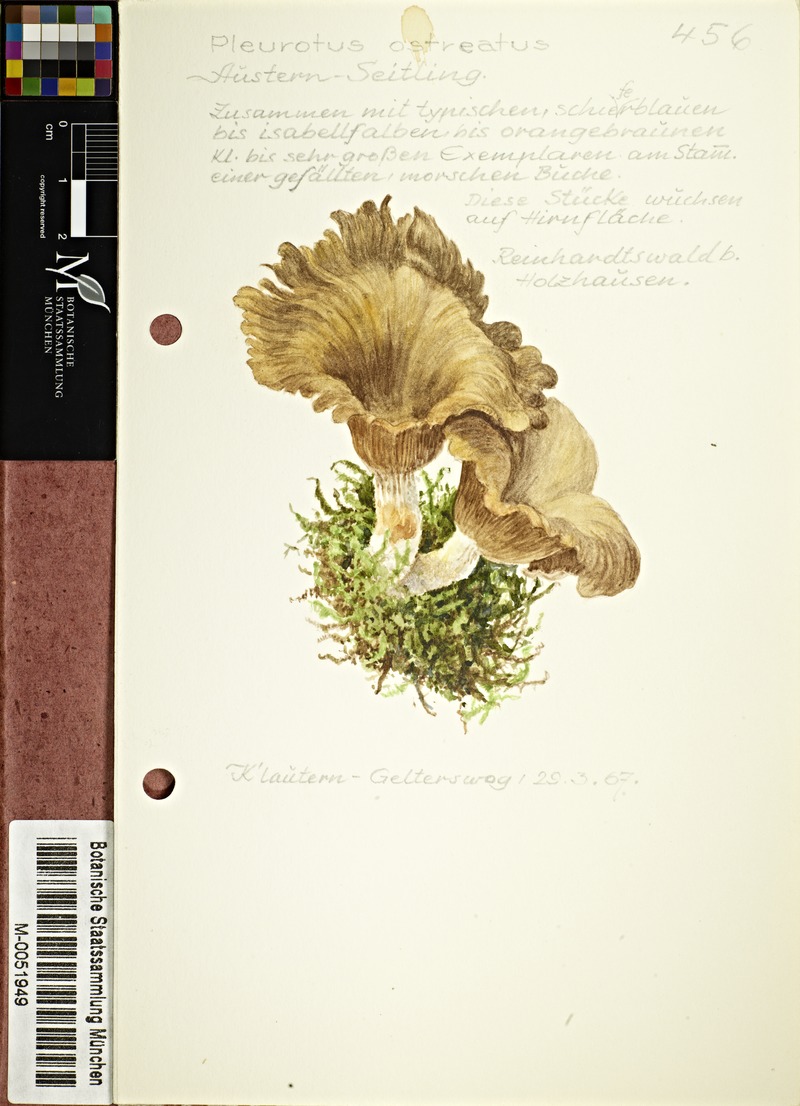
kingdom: Fungi
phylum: Basidiomycota
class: Agaricomycetes
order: Agaricales
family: Pleurotaceae
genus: Pleurotus
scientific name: Pleurotus ostreatus
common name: Oyster mushroom
